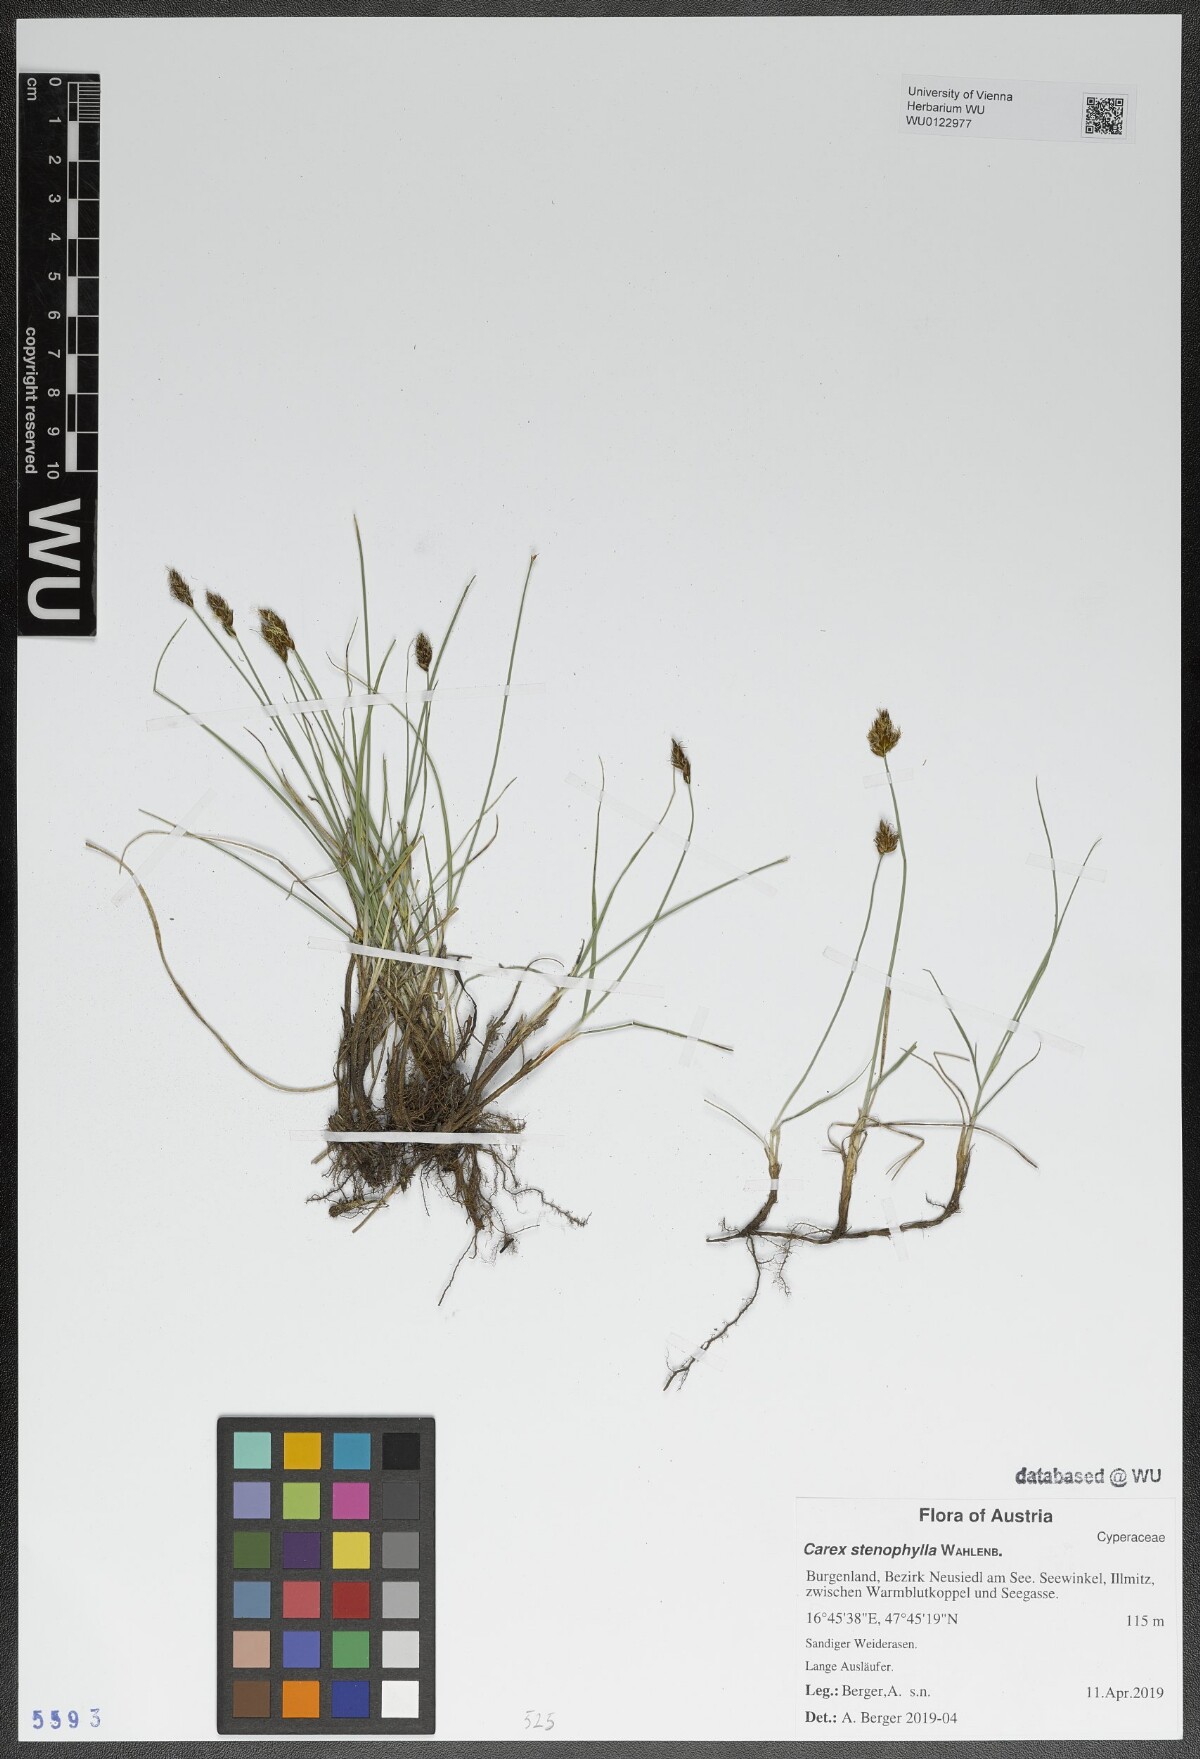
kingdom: Plantae
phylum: Tracheophyta
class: Liliopsida
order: Poales
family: Cyperaceae
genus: Carex
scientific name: Carex stenophylla
